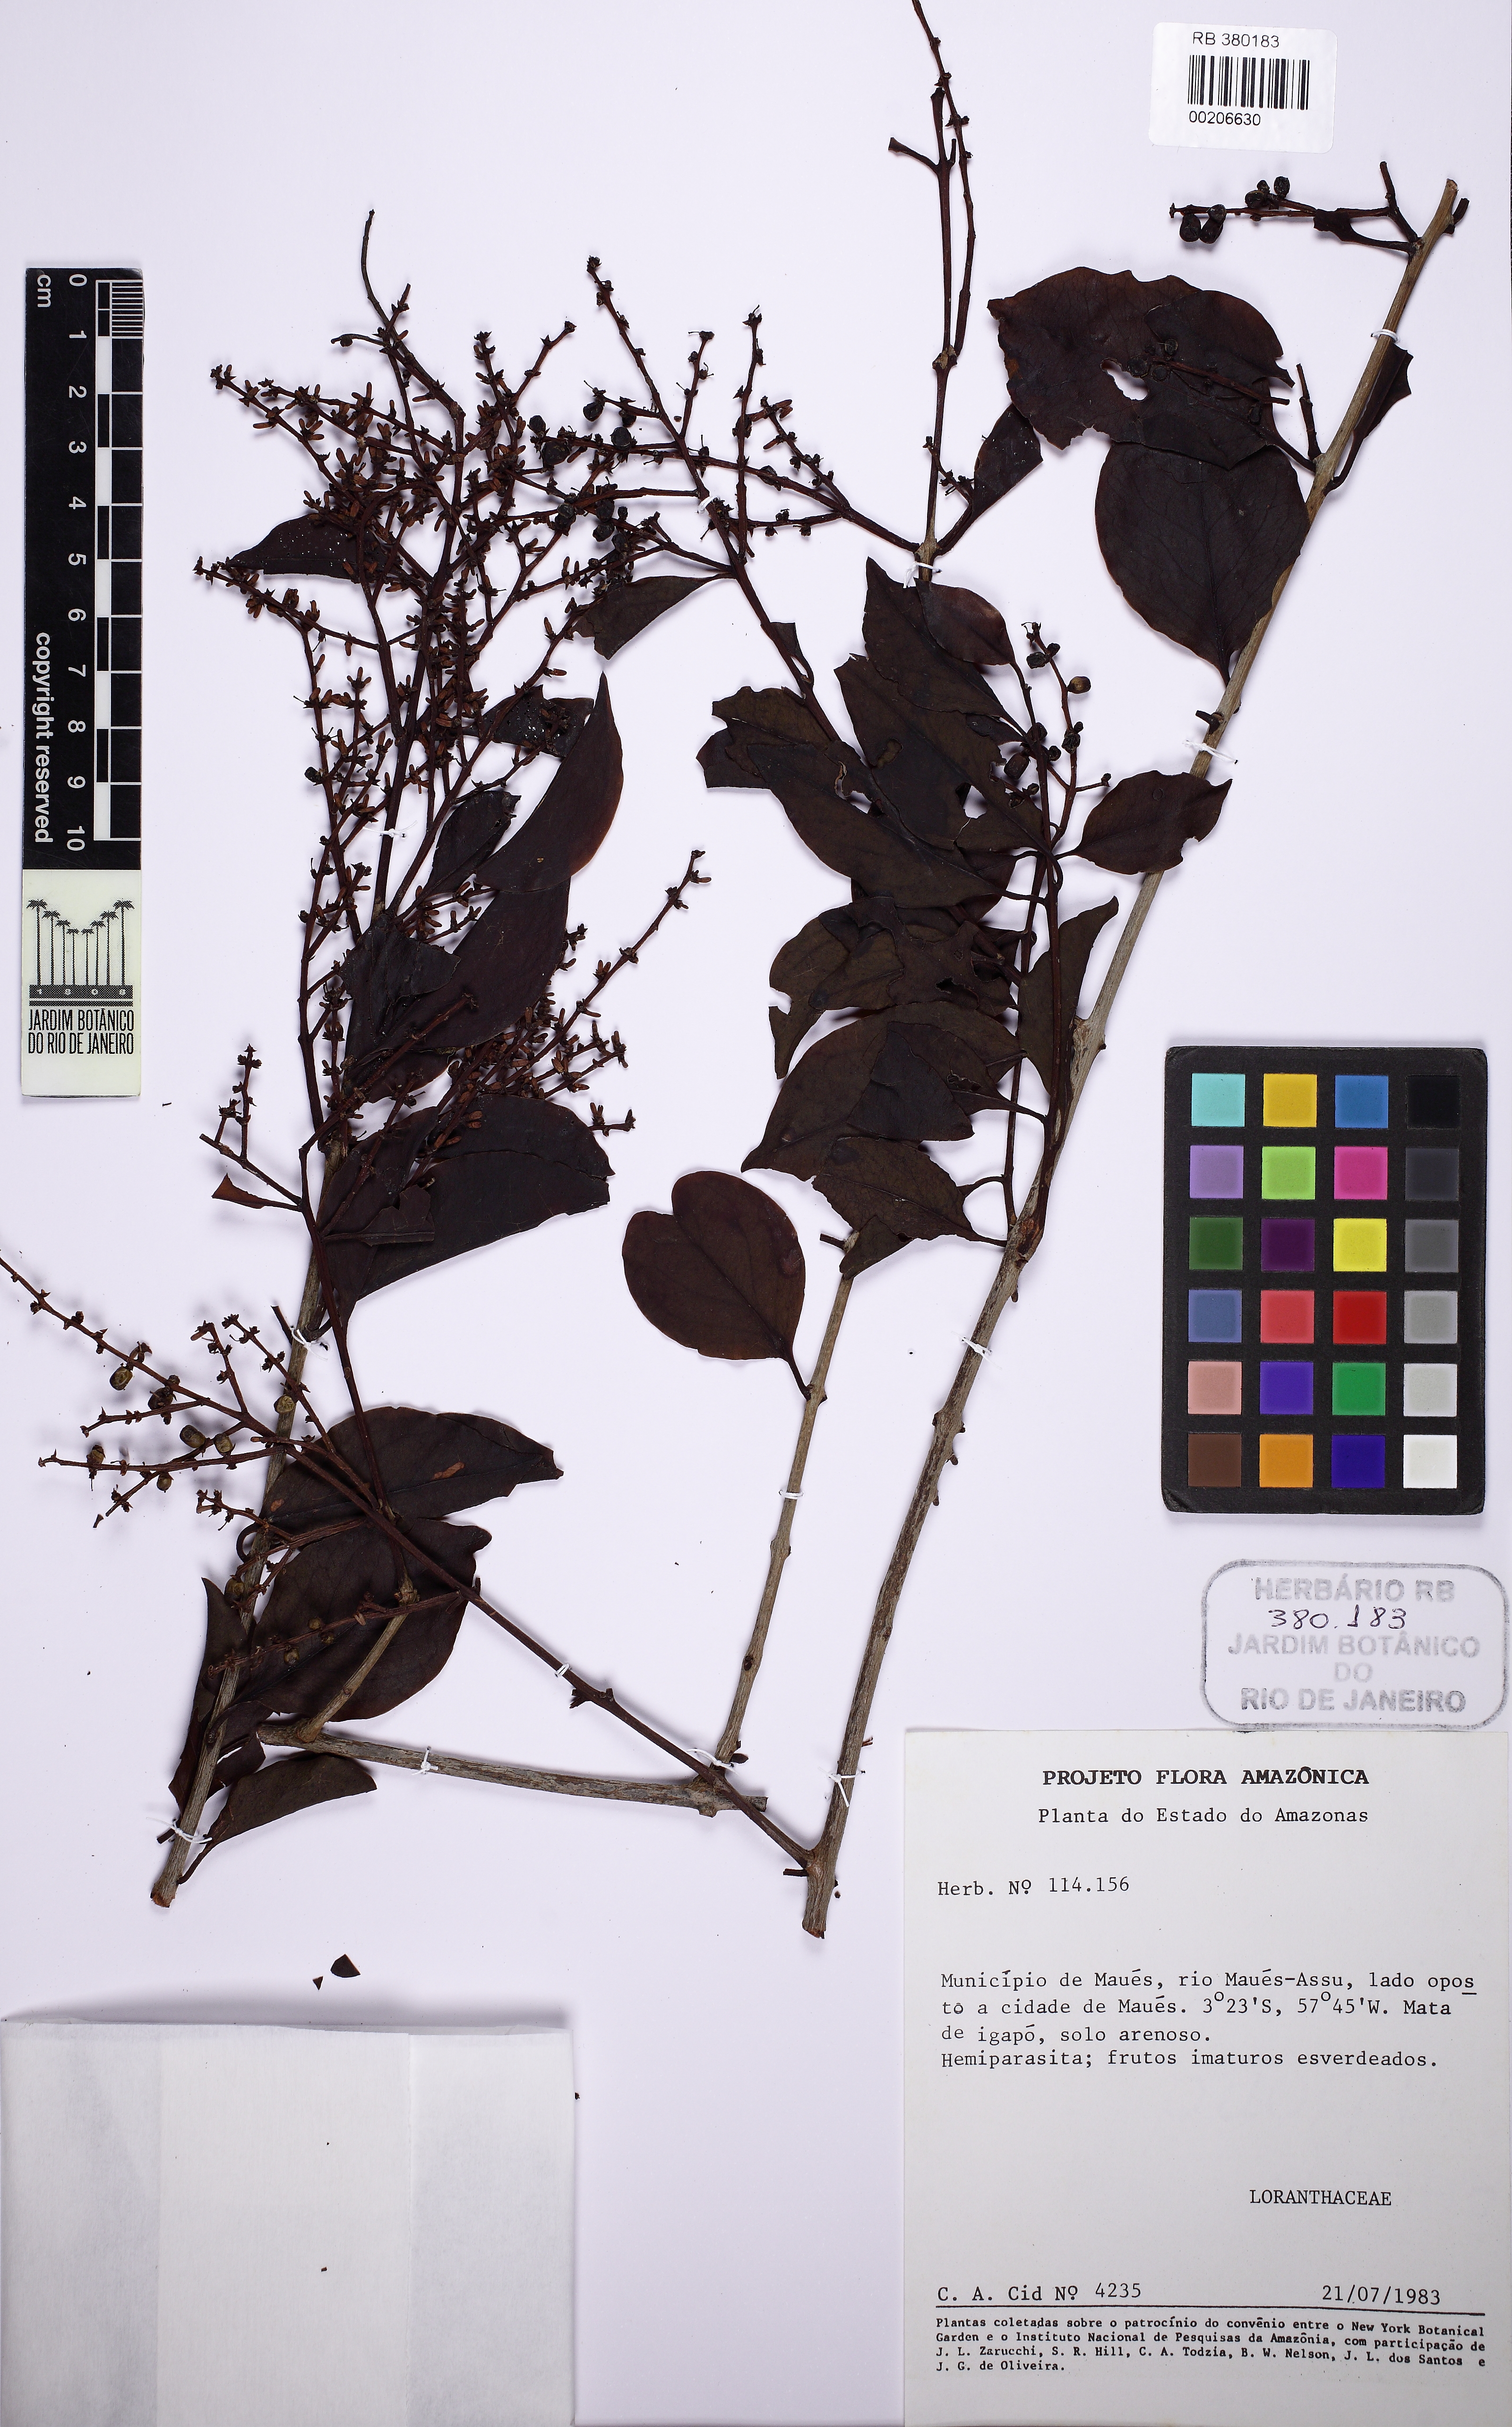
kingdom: Plantae
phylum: Tracheophyta
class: Magnoliopsida
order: Santalales
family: Loranthaceae
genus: Passovia
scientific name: Passovia pedunculata
